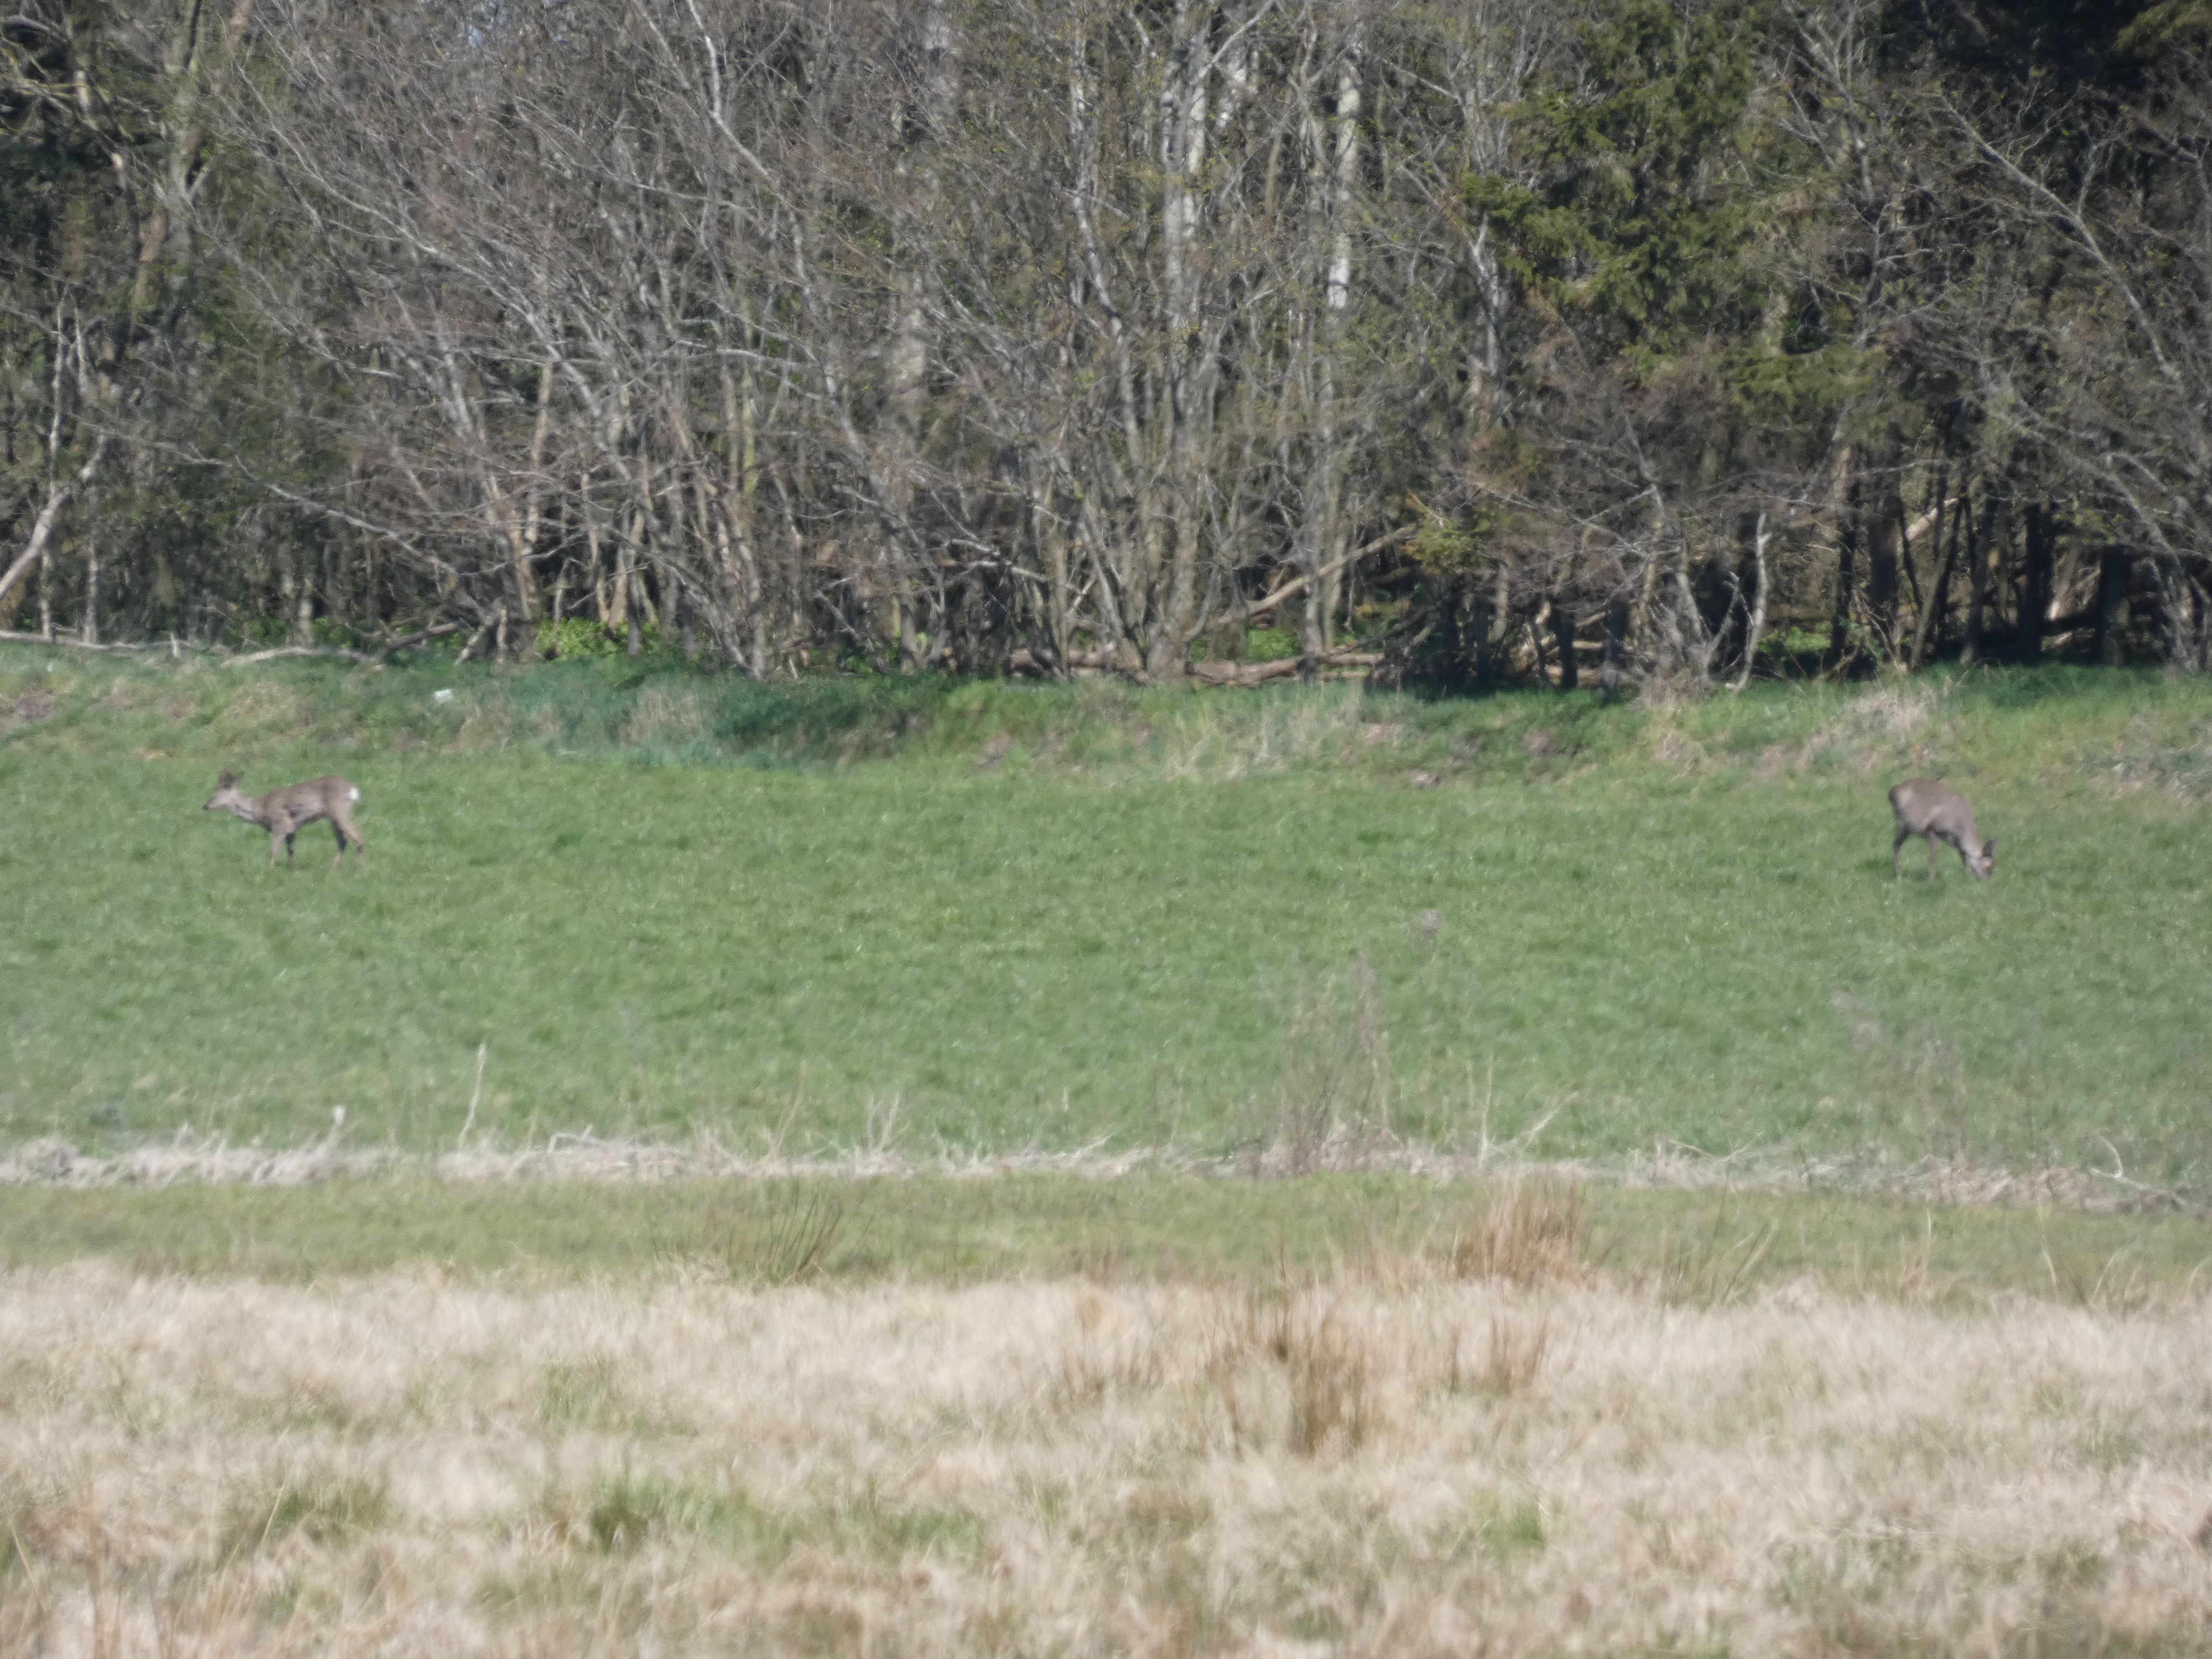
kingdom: Animalia
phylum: Chordata
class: Mammalia
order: Artiodactyla
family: Cervidae
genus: Capreolus
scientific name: Capreolus capreolus
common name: Rådyr
